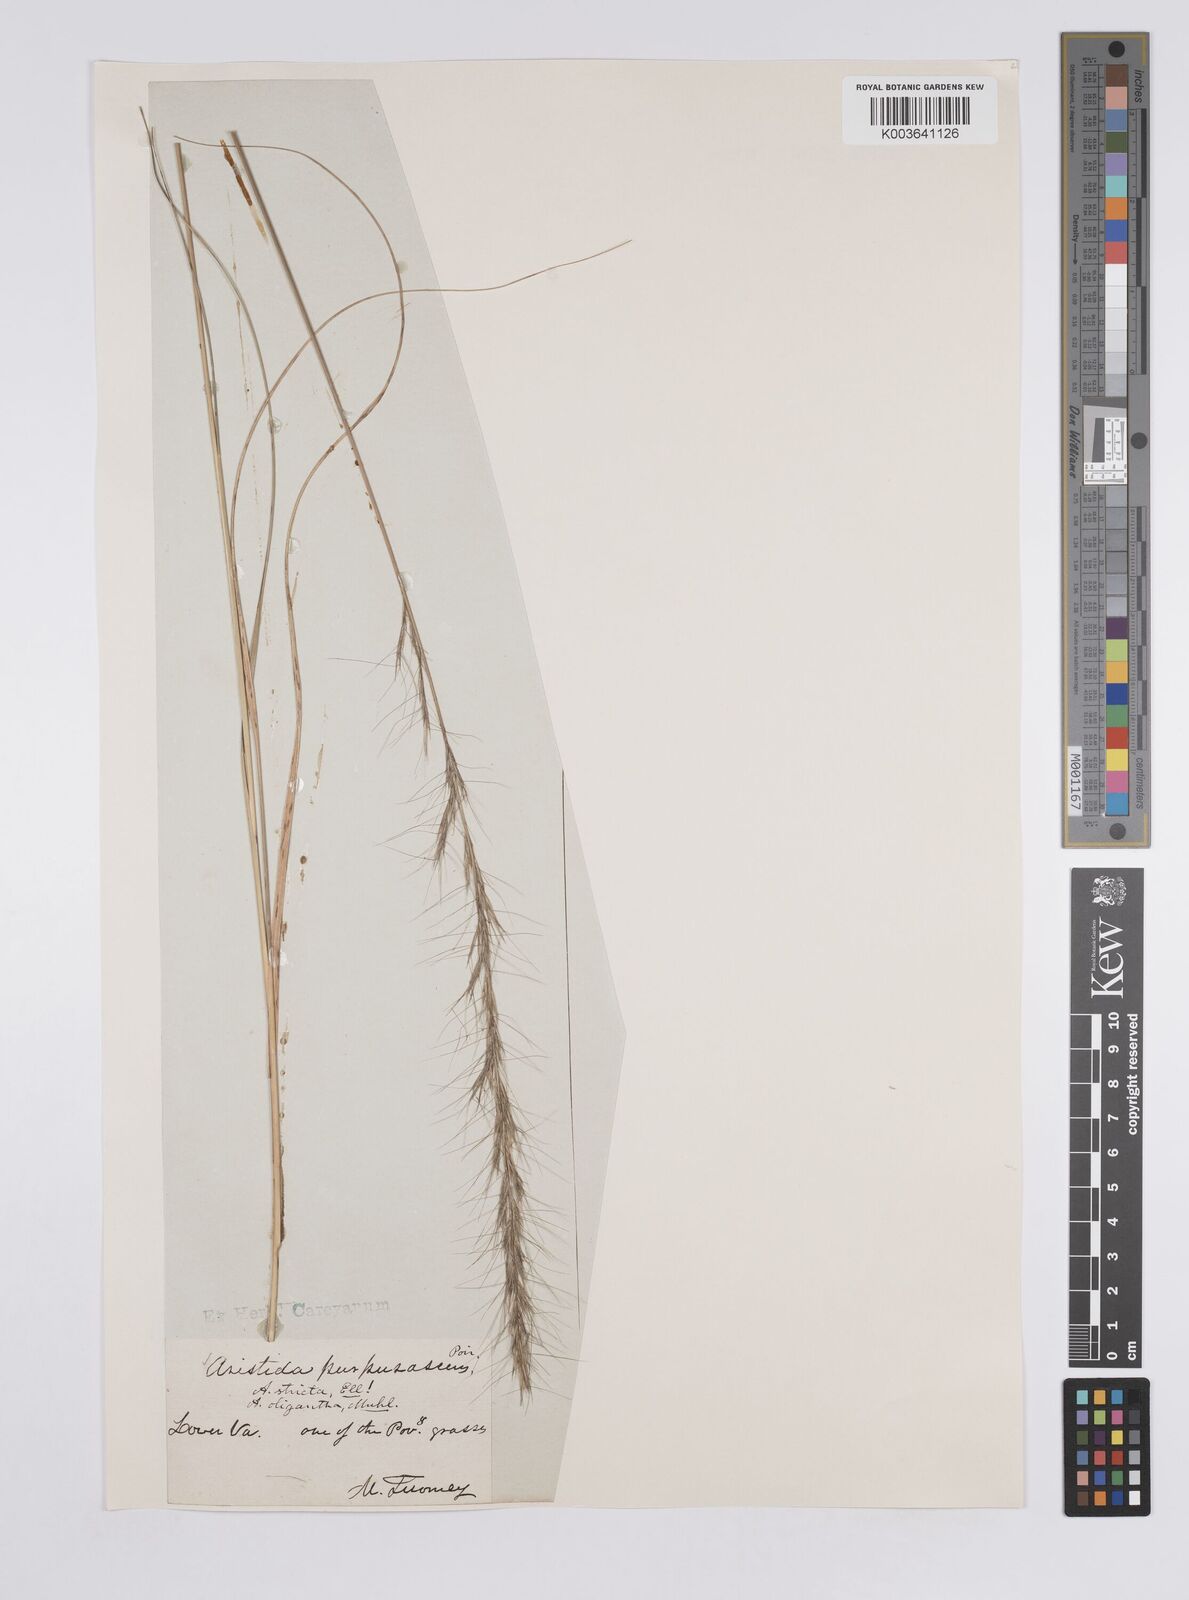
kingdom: Plantae
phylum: Tracheophyta
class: Liliopsida
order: Poales
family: Poaceae
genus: Aristida
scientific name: Aristida purpurascens
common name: Arrow-feather
